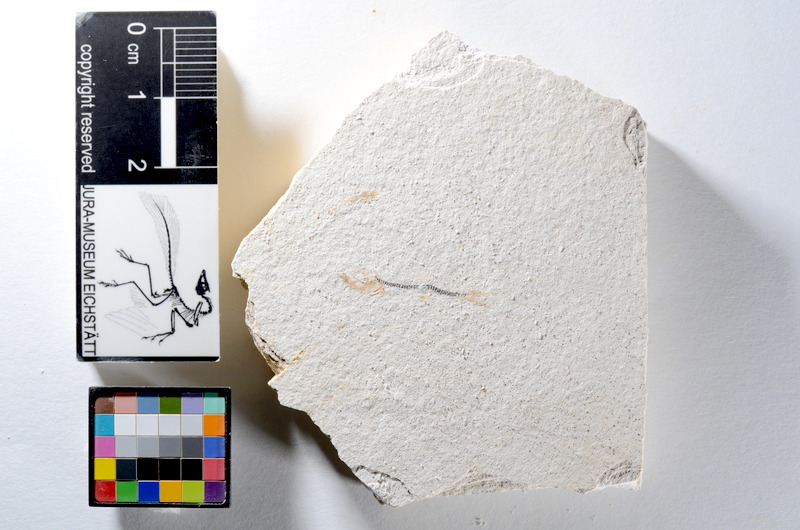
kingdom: Animalia
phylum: Chordata
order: Salmoniformes
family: Orthogonikleithridae
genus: Orthogonikleithrus
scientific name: Orthogonikleithrus hoelli
